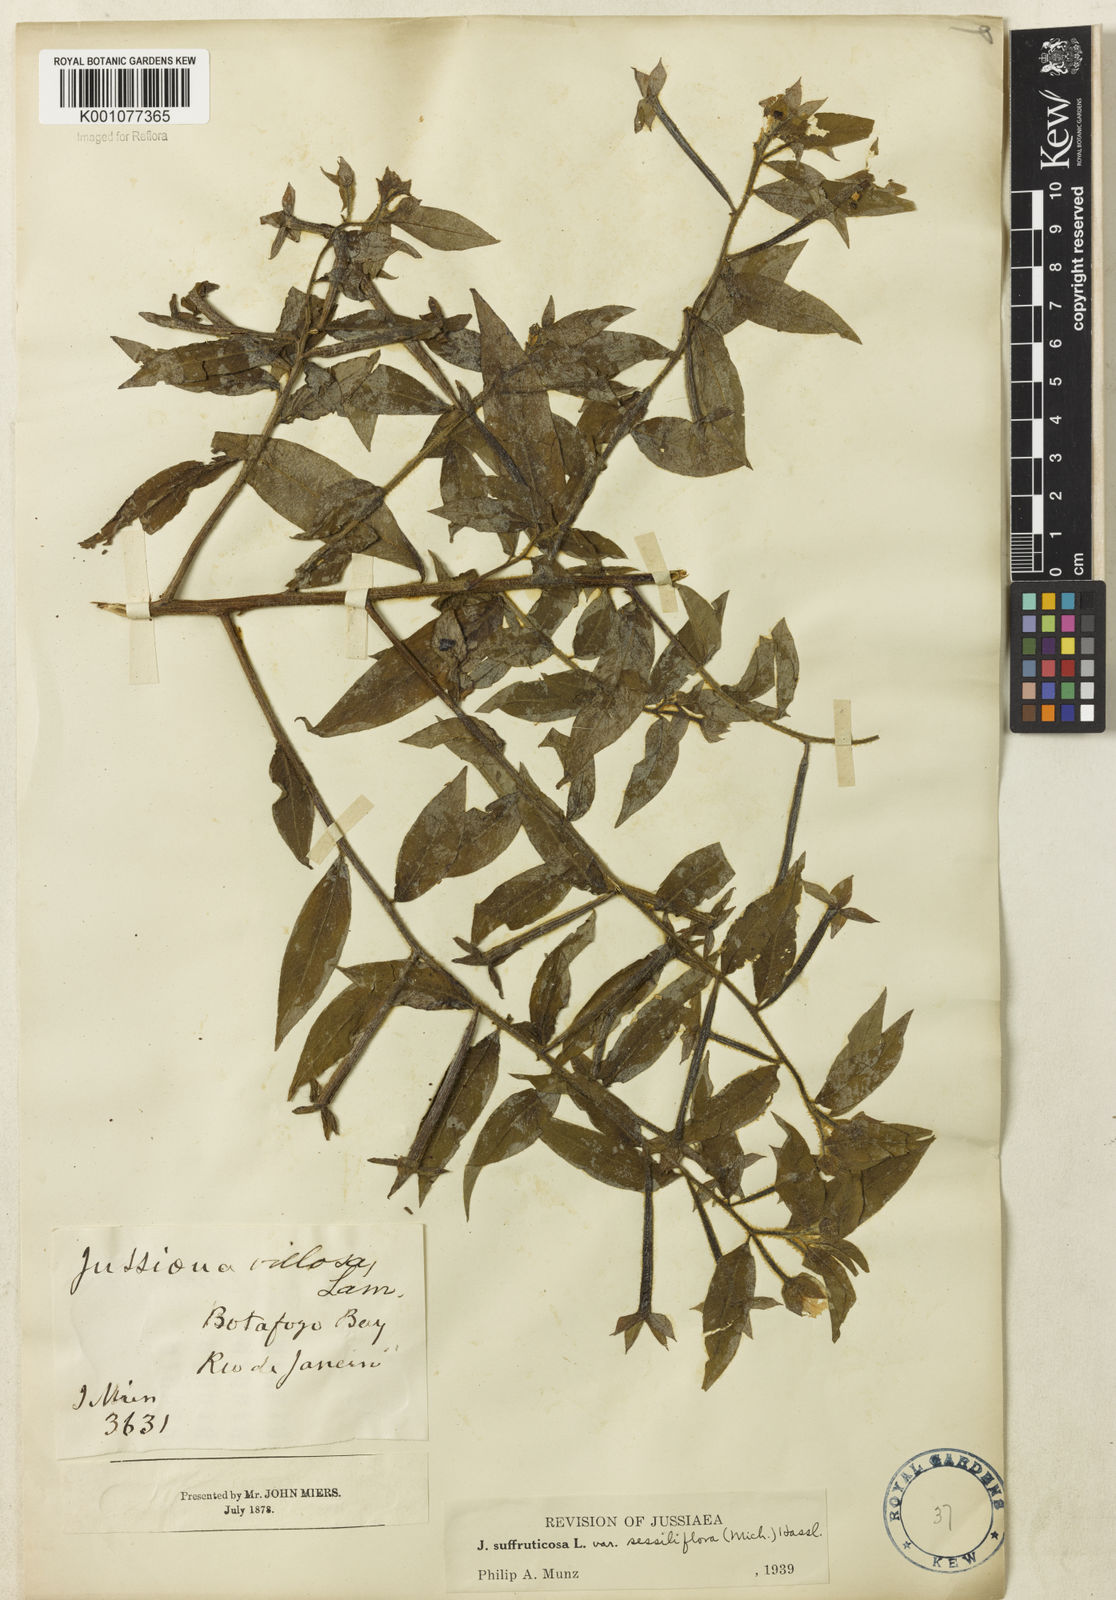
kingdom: Plantae
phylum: Tracheophyta
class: Magnoliopsida
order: Myrtales
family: Onagraceae
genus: Ludwigia
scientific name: Ludwigia octovalvis
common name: Water-primrose
